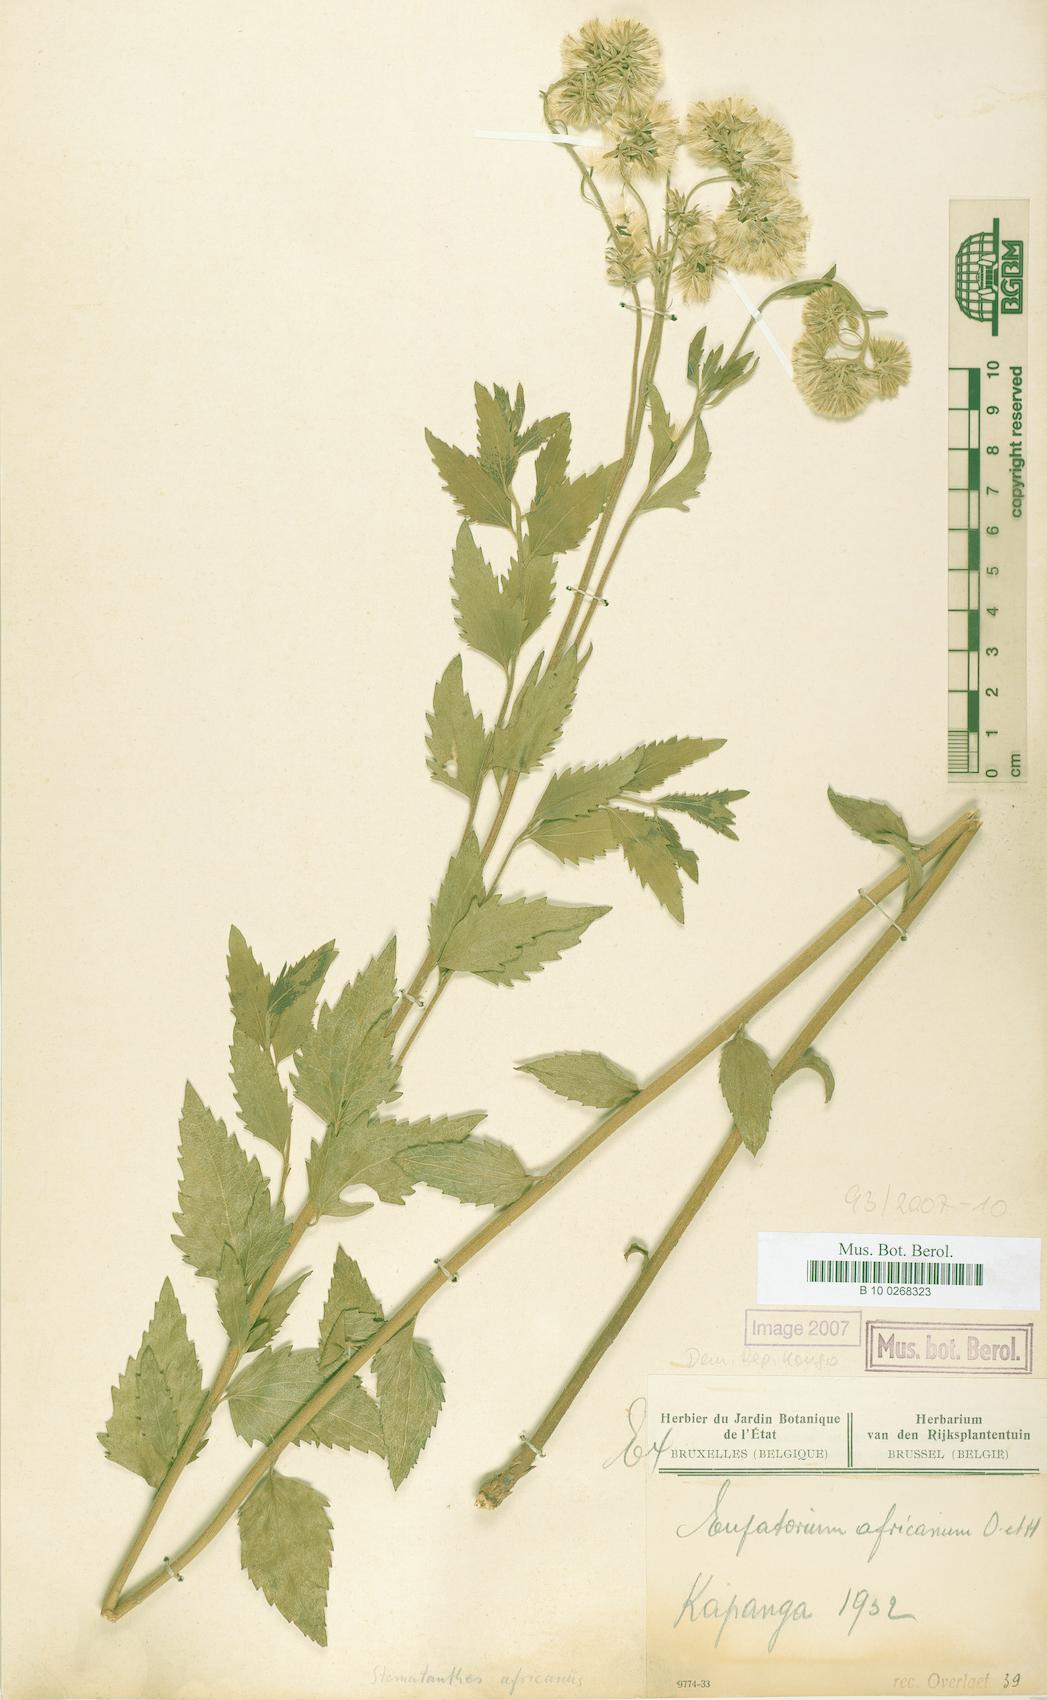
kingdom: Plantae
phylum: Tracheophyta
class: Magnoliopsida
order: Asterales
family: Asteraceae
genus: Stomatanthes
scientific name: Stomatanthes africanus
